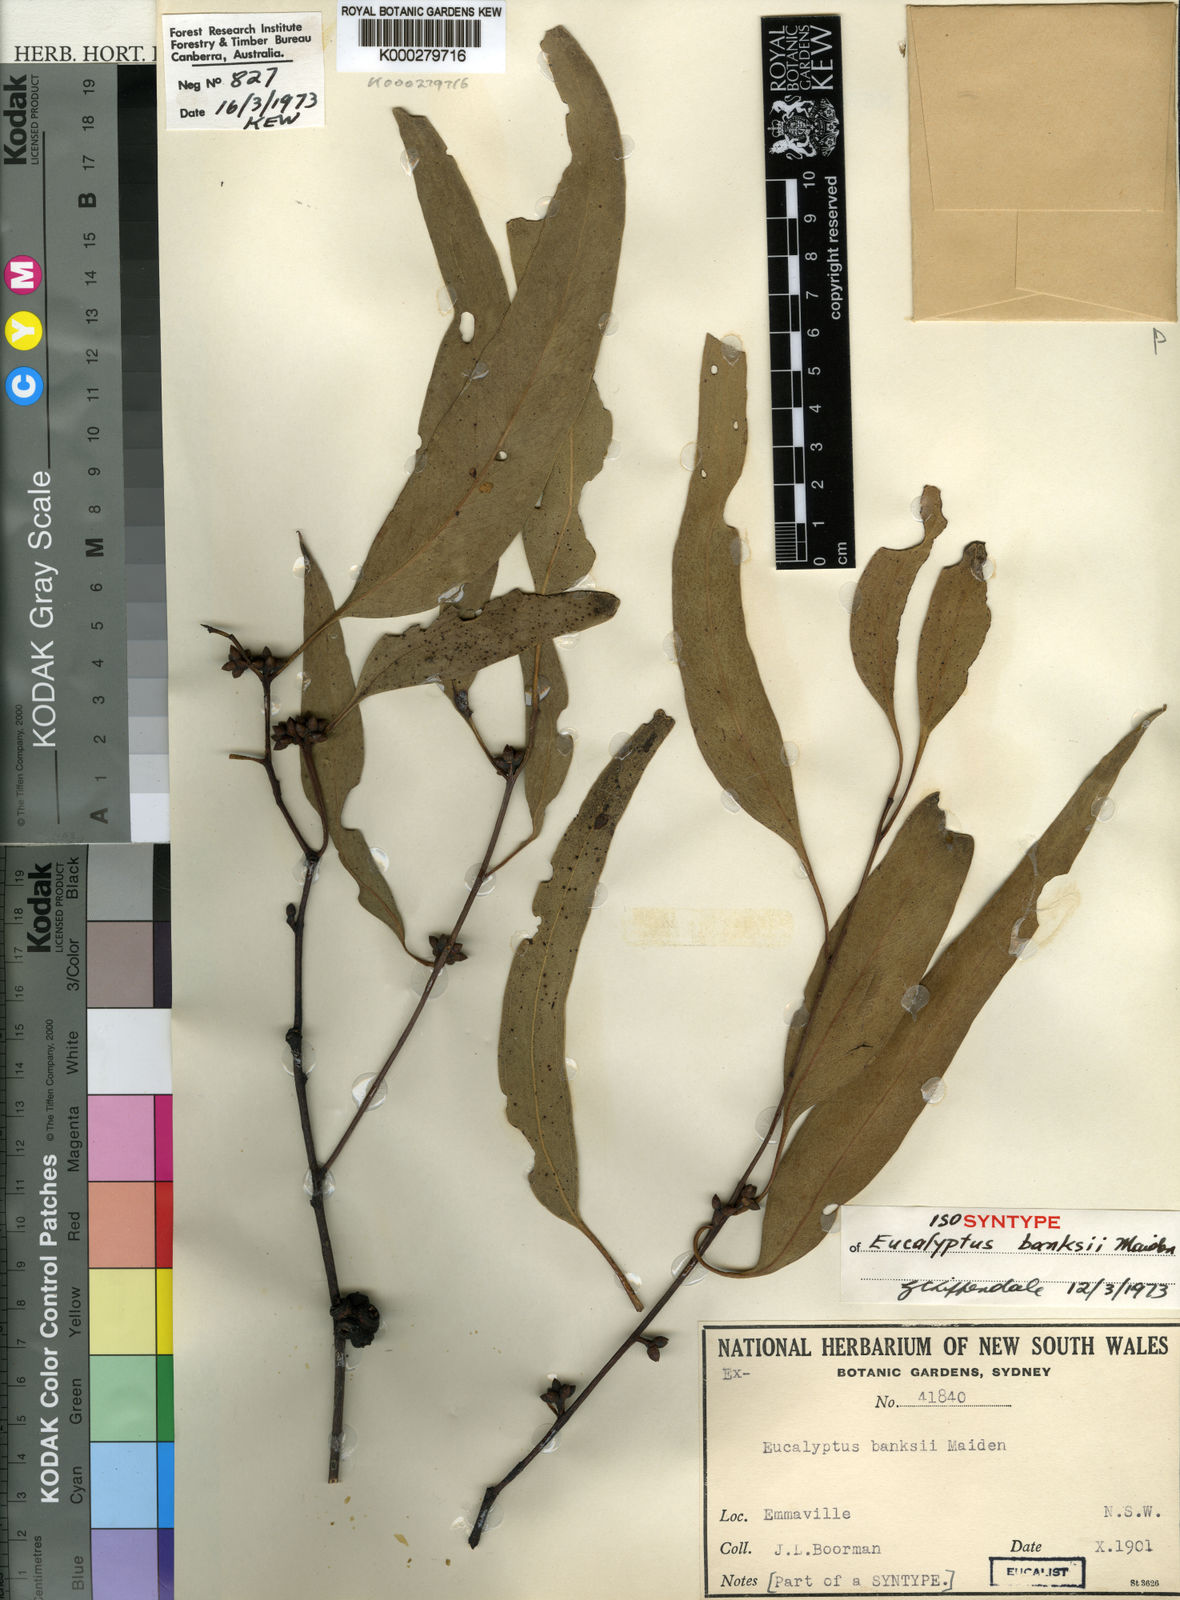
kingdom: Plantae
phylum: Tracheophyta
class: Magnoliopsida
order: Myrtales
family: Myrtaceae
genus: Eucalyptus
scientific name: Eucalyptus banksii
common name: Tenterfield woollybutt
